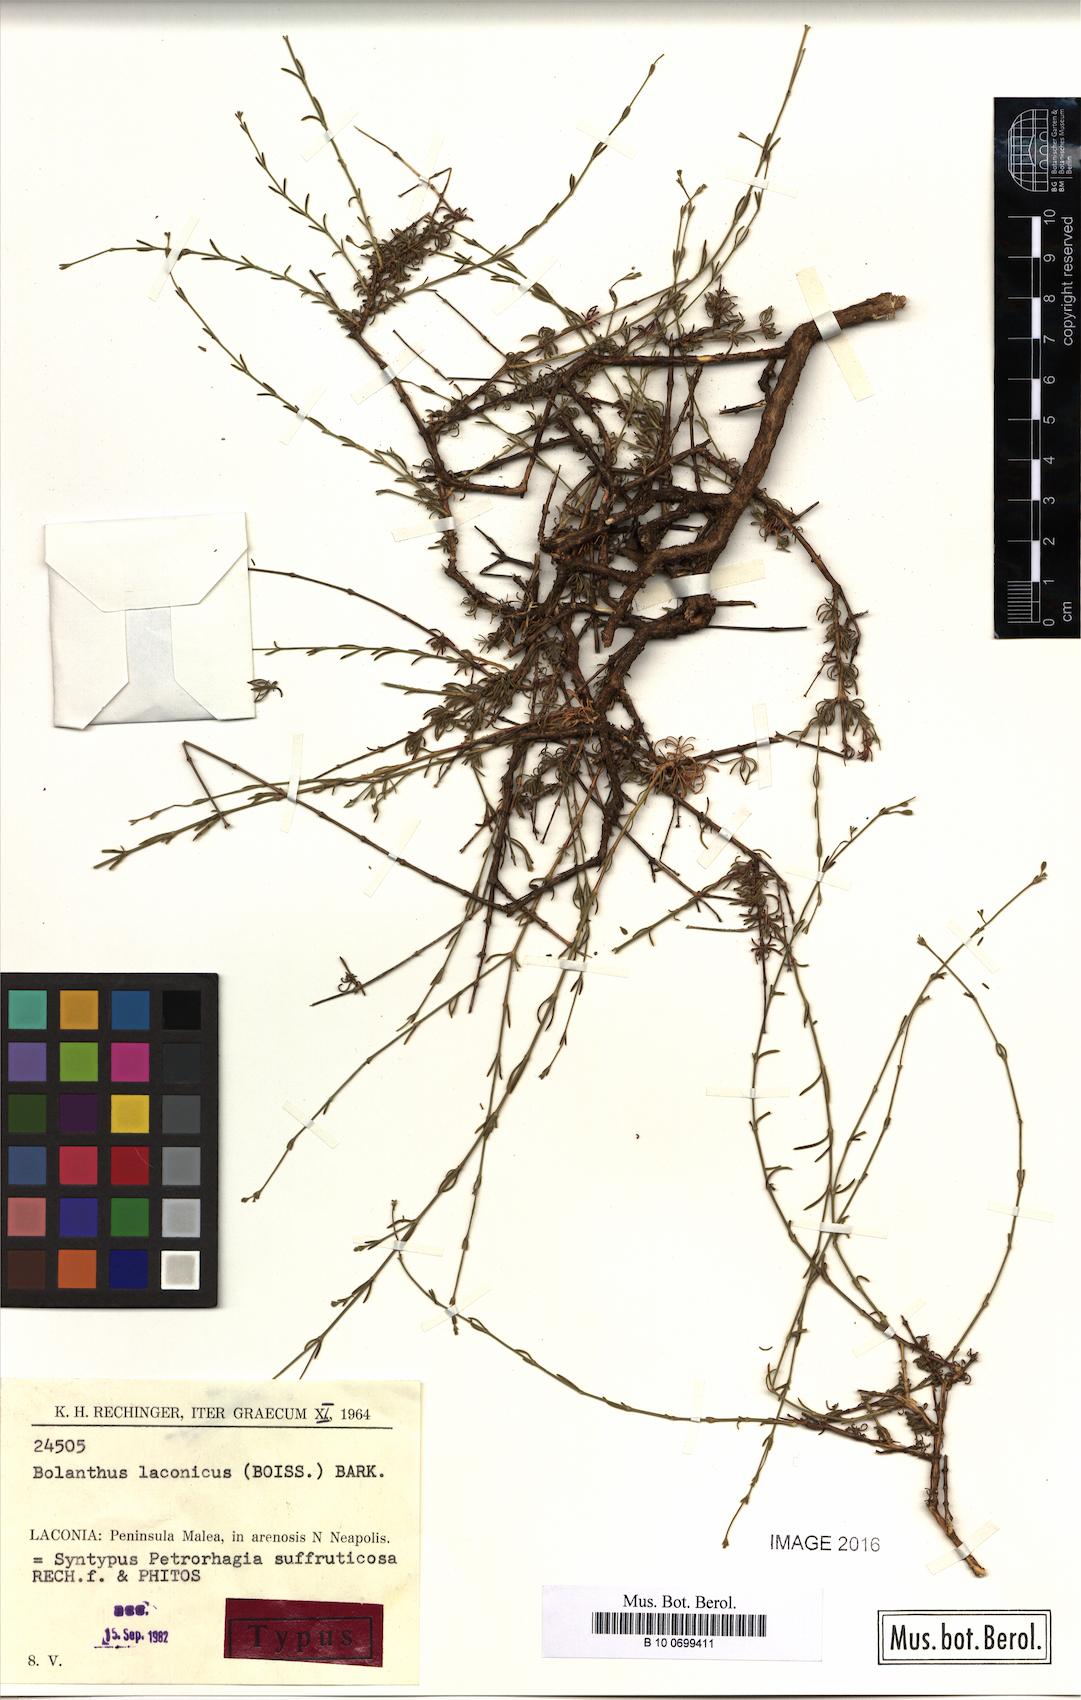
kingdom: Plantae
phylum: Tracheophyta
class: Magnoliopsida
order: Caryophyllales
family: Caryophyllaceae
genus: Graecobolanthus
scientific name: Graecobolanthus laconicus
